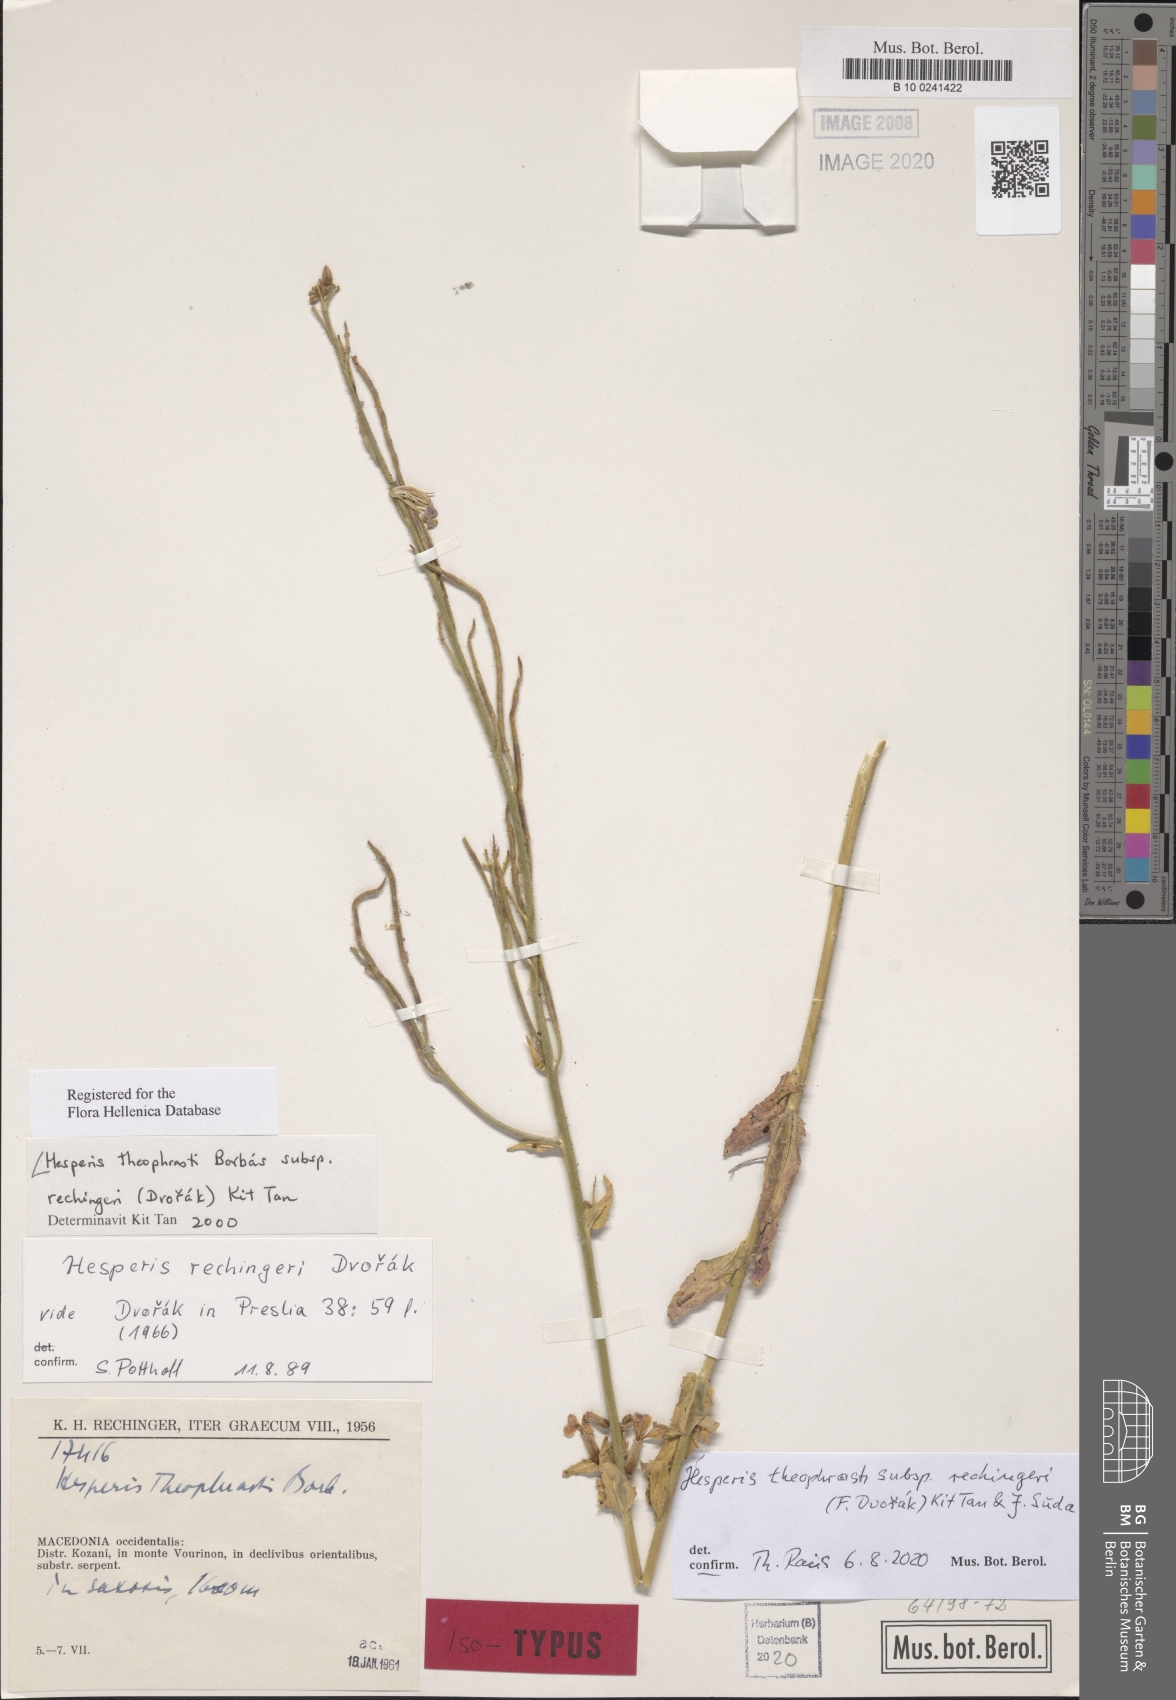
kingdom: Plantae
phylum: Tracheophyta
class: Magnoliopsida
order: Brassicales
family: Brassicaceae
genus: Hesperis
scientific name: Hesperis theophrasti
